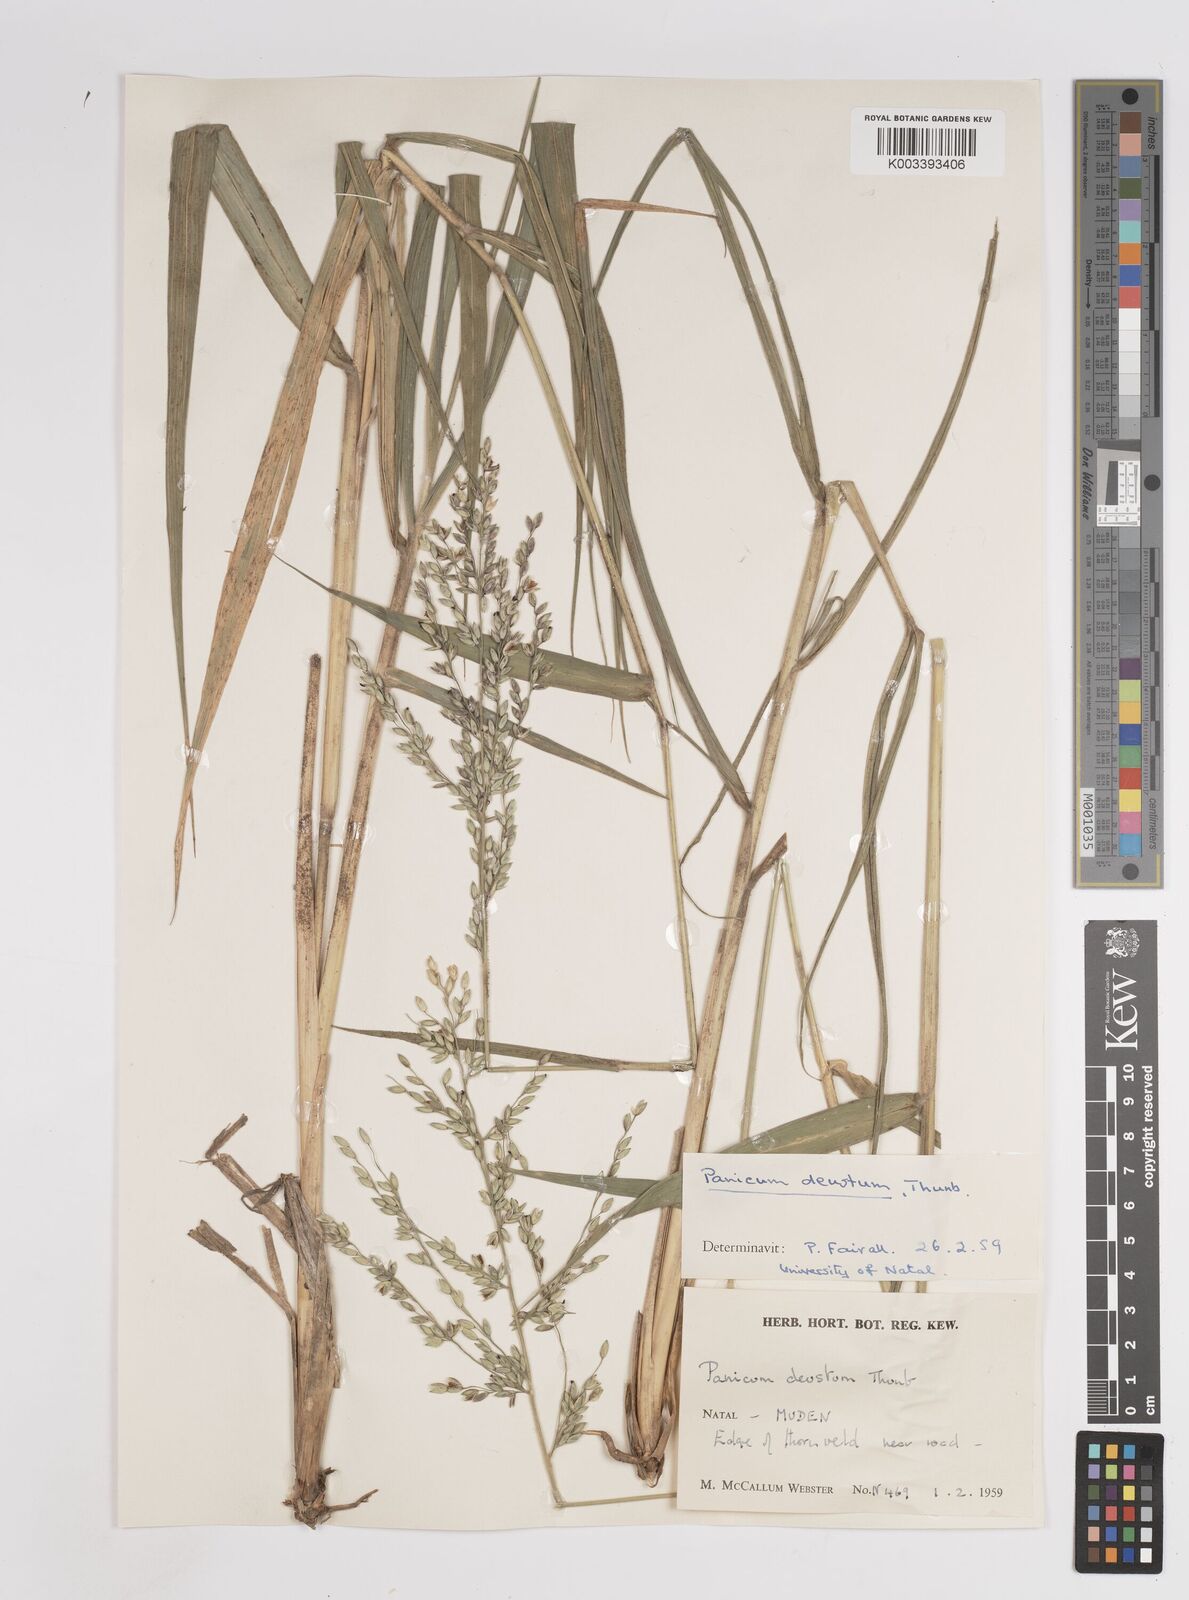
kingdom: Plantae
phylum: Tracheophyta
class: Liliopsida
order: Poales
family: Poaceae
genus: Panicum
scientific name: Panicum deustum
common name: Reed panicum
